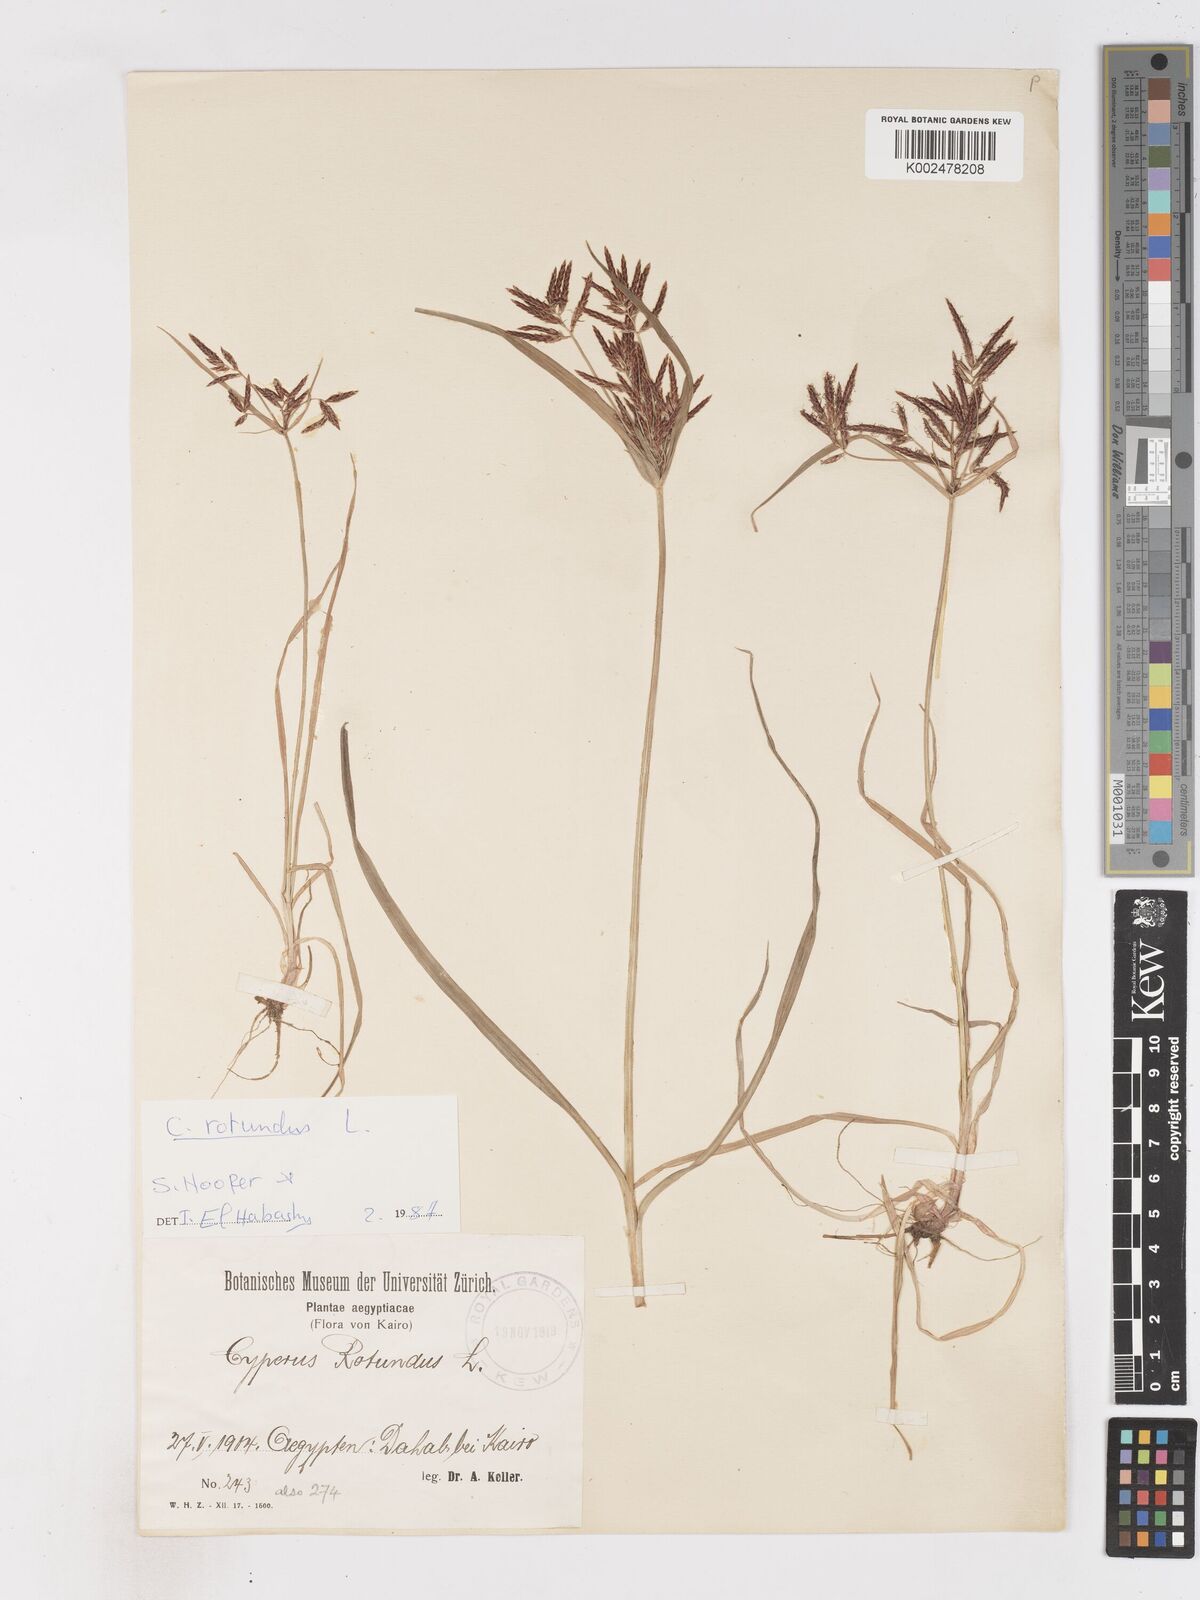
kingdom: Plantae
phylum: Tracheophyta
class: Liliopsida
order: Poales
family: Cyperaceae
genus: Cyperus
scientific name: Cyperus rotundus
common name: Nutgrass
